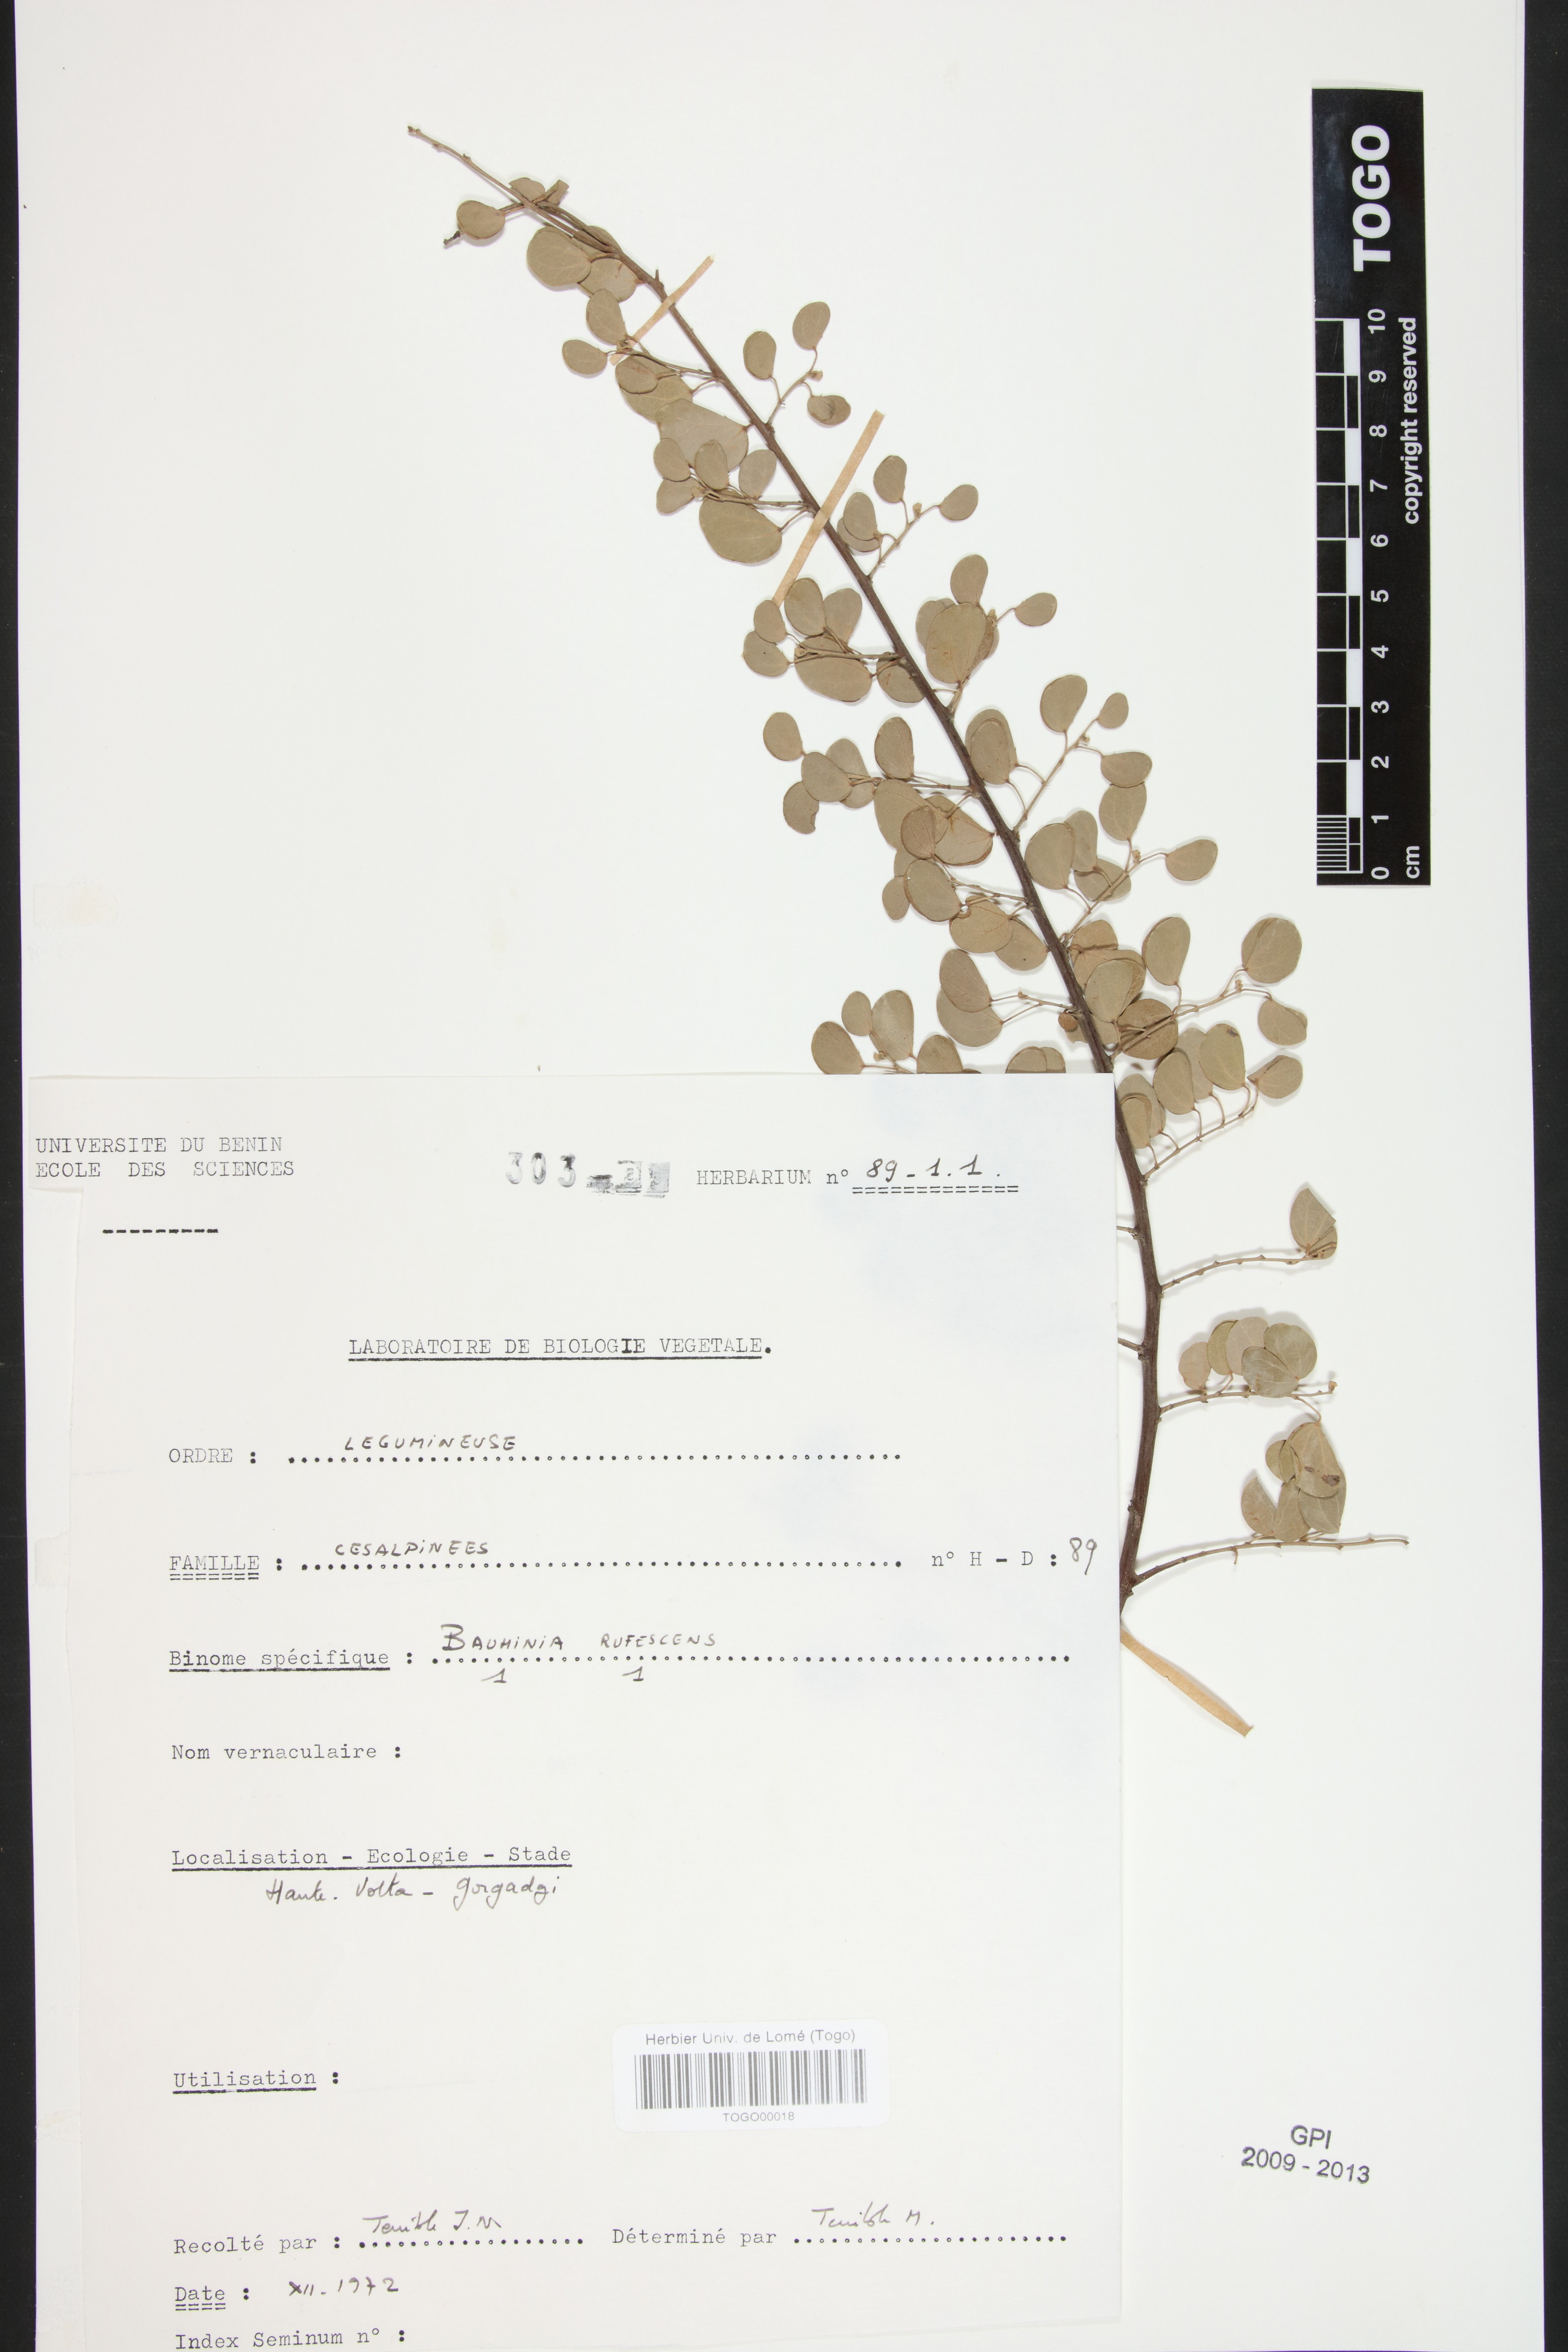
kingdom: Plantae
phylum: Tracheophyta
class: Magnoliopsida
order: Fabales
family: Fabaceae
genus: Bauhinia
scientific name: Bauhinia rufescens
